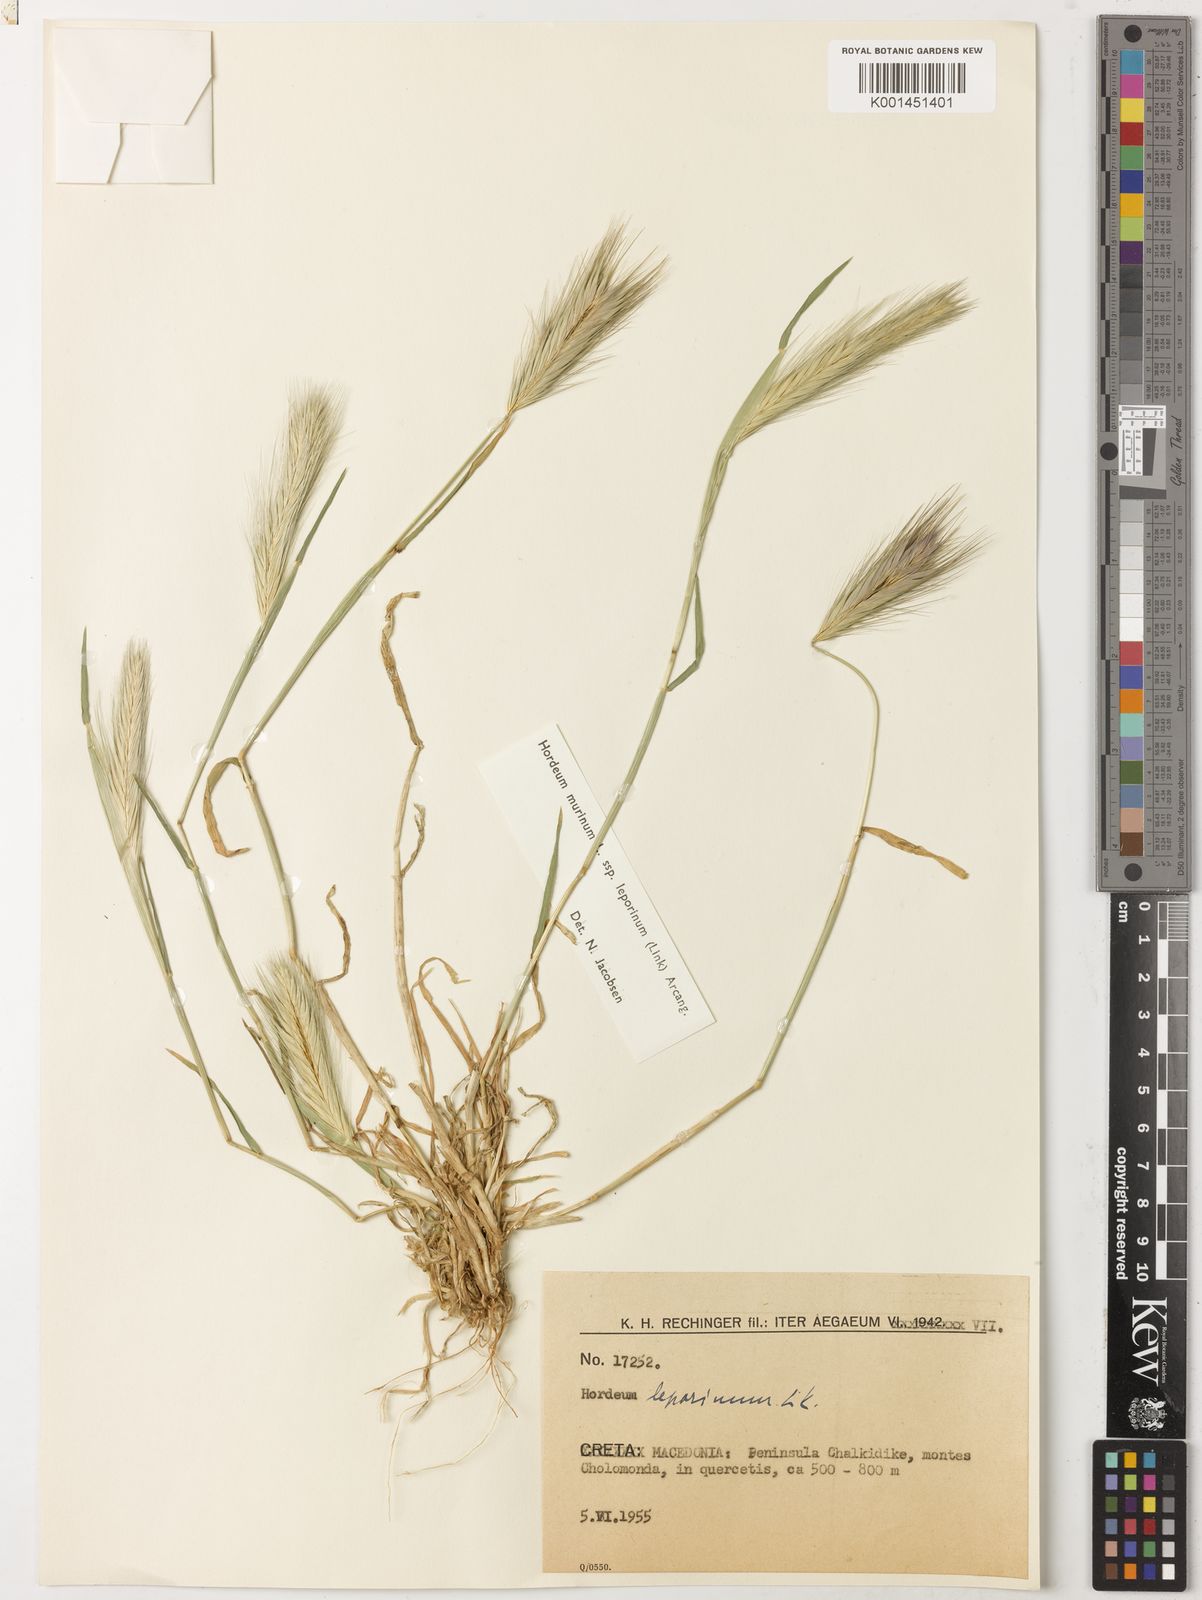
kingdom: Plantae
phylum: Tracheophyta
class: Liliopsida
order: Poales
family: Poaceae
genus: Hordeum
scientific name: Hordeum murinum
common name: Wall barley
